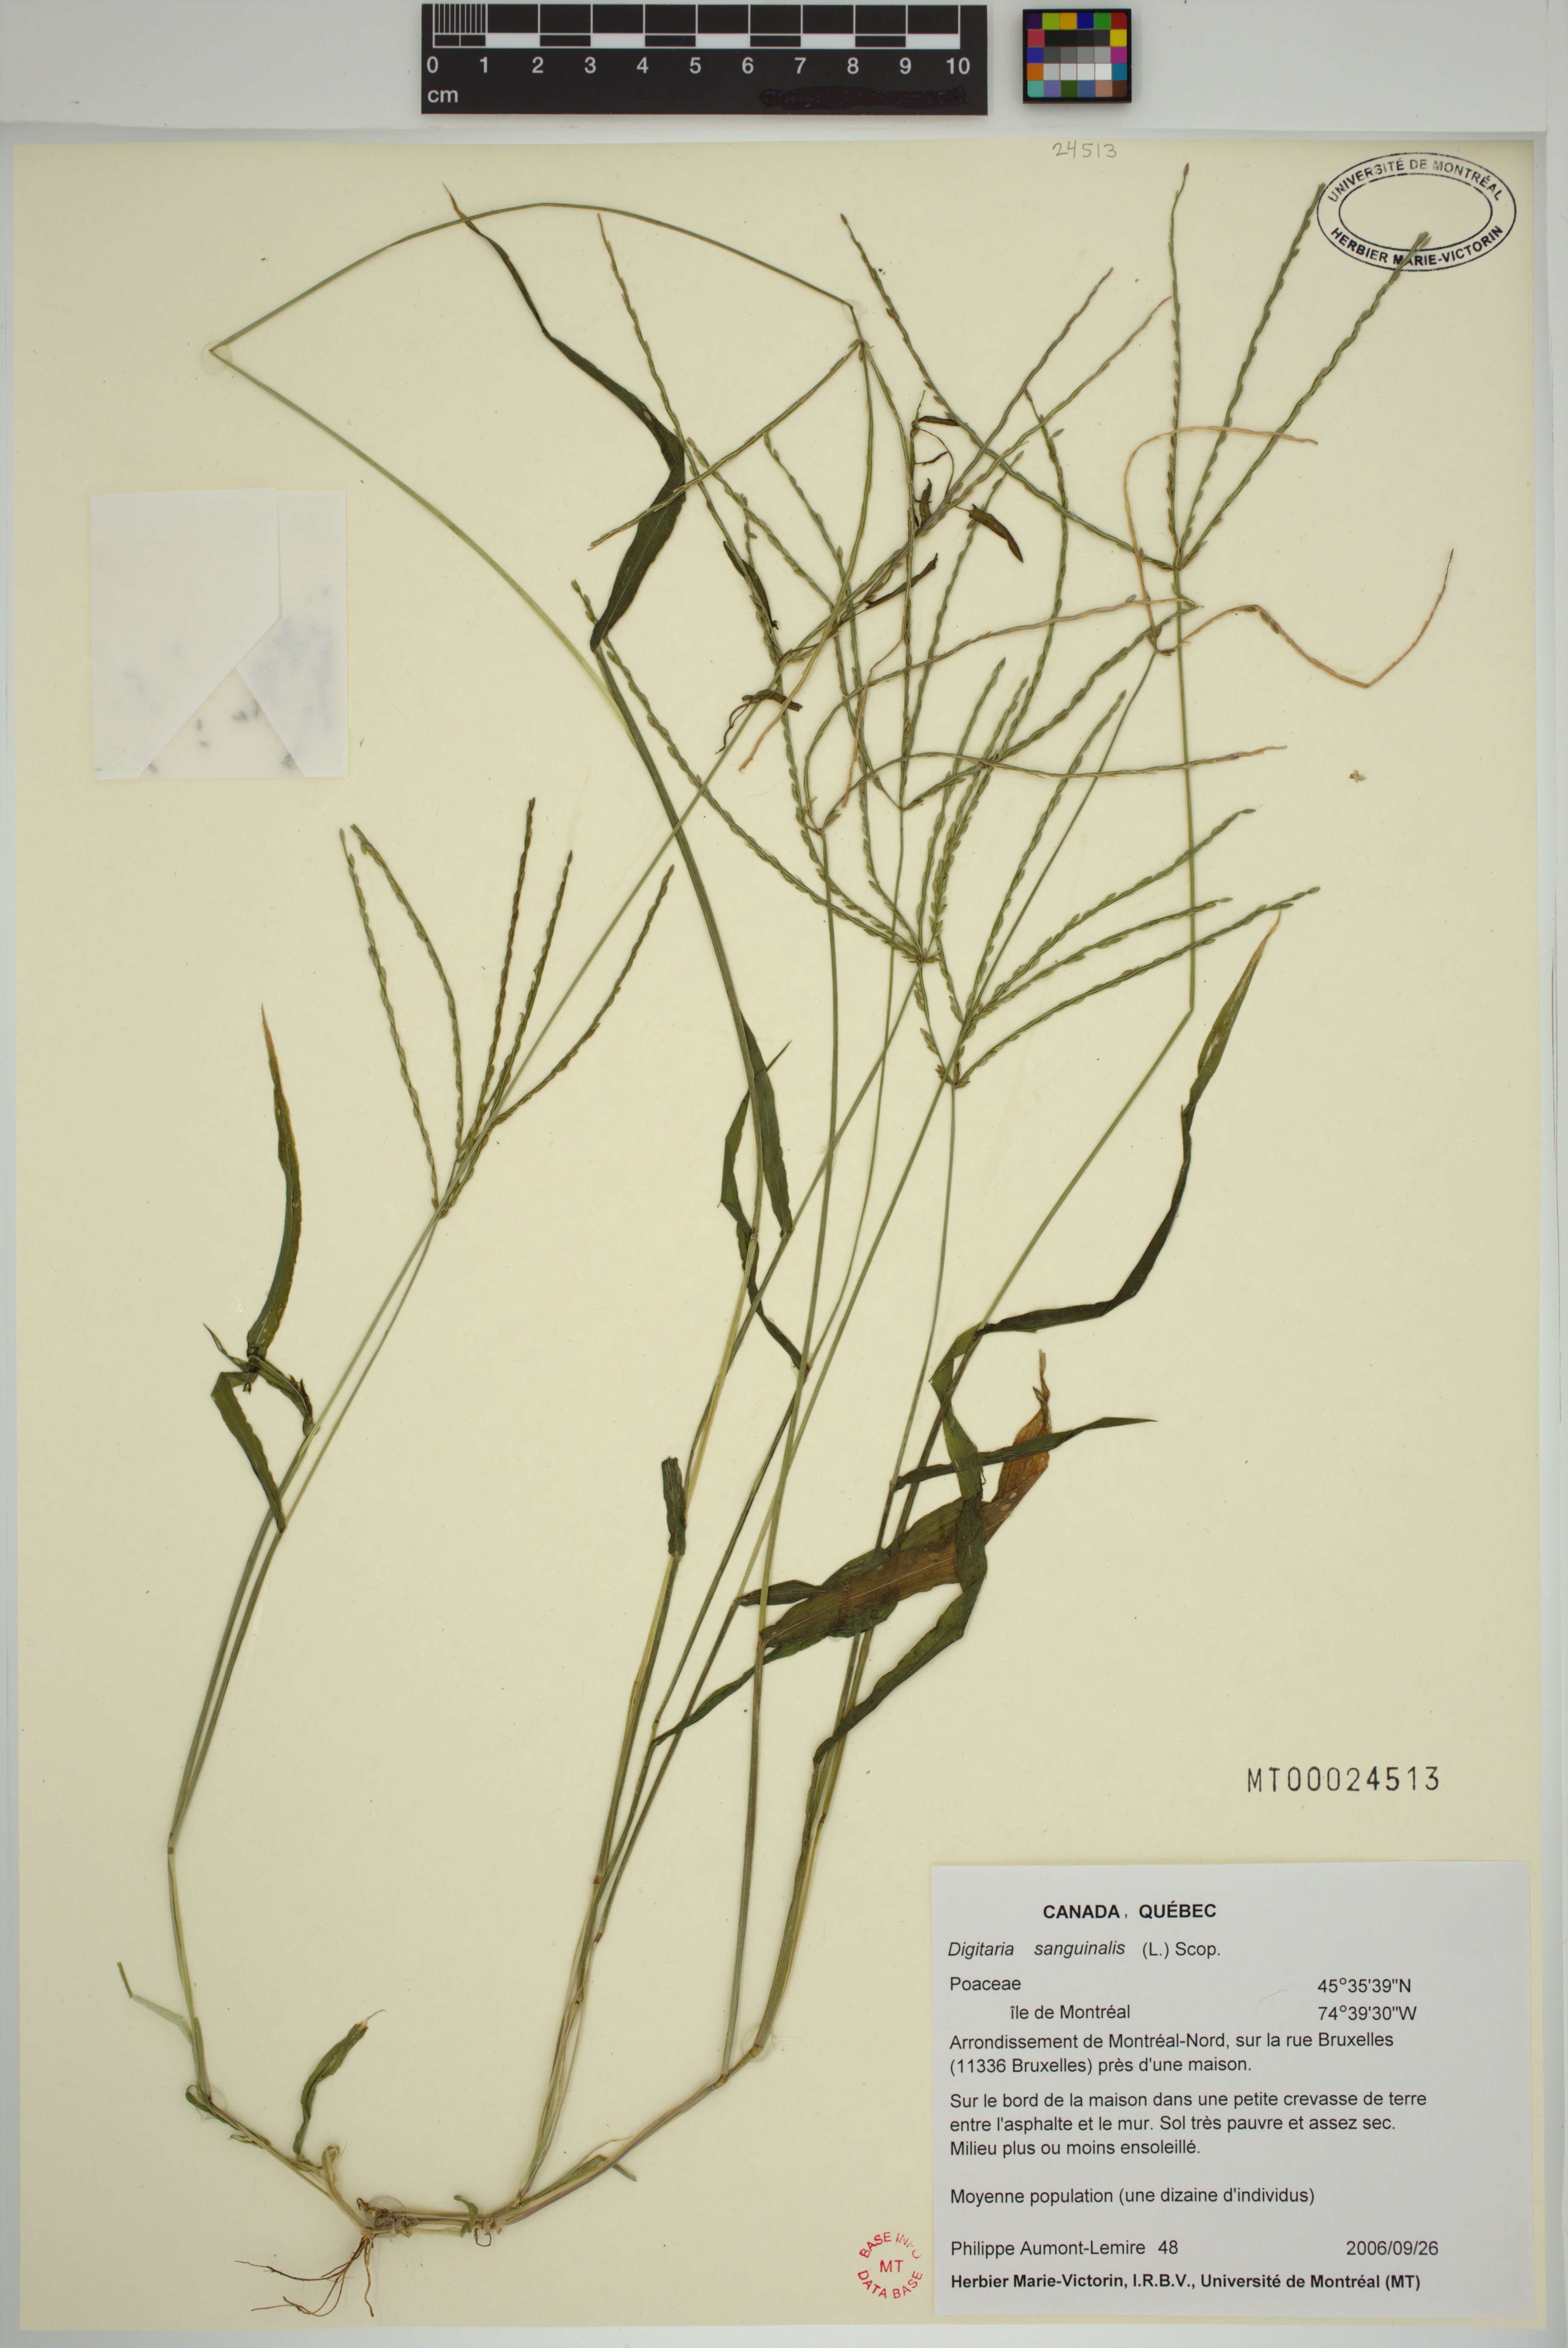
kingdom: Plantae
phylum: Tracheophyta
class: Liliopsida
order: Poales
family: Poaceae
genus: Digitaria
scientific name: Digitaria sanguinalis
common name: Hairy crabgrass
